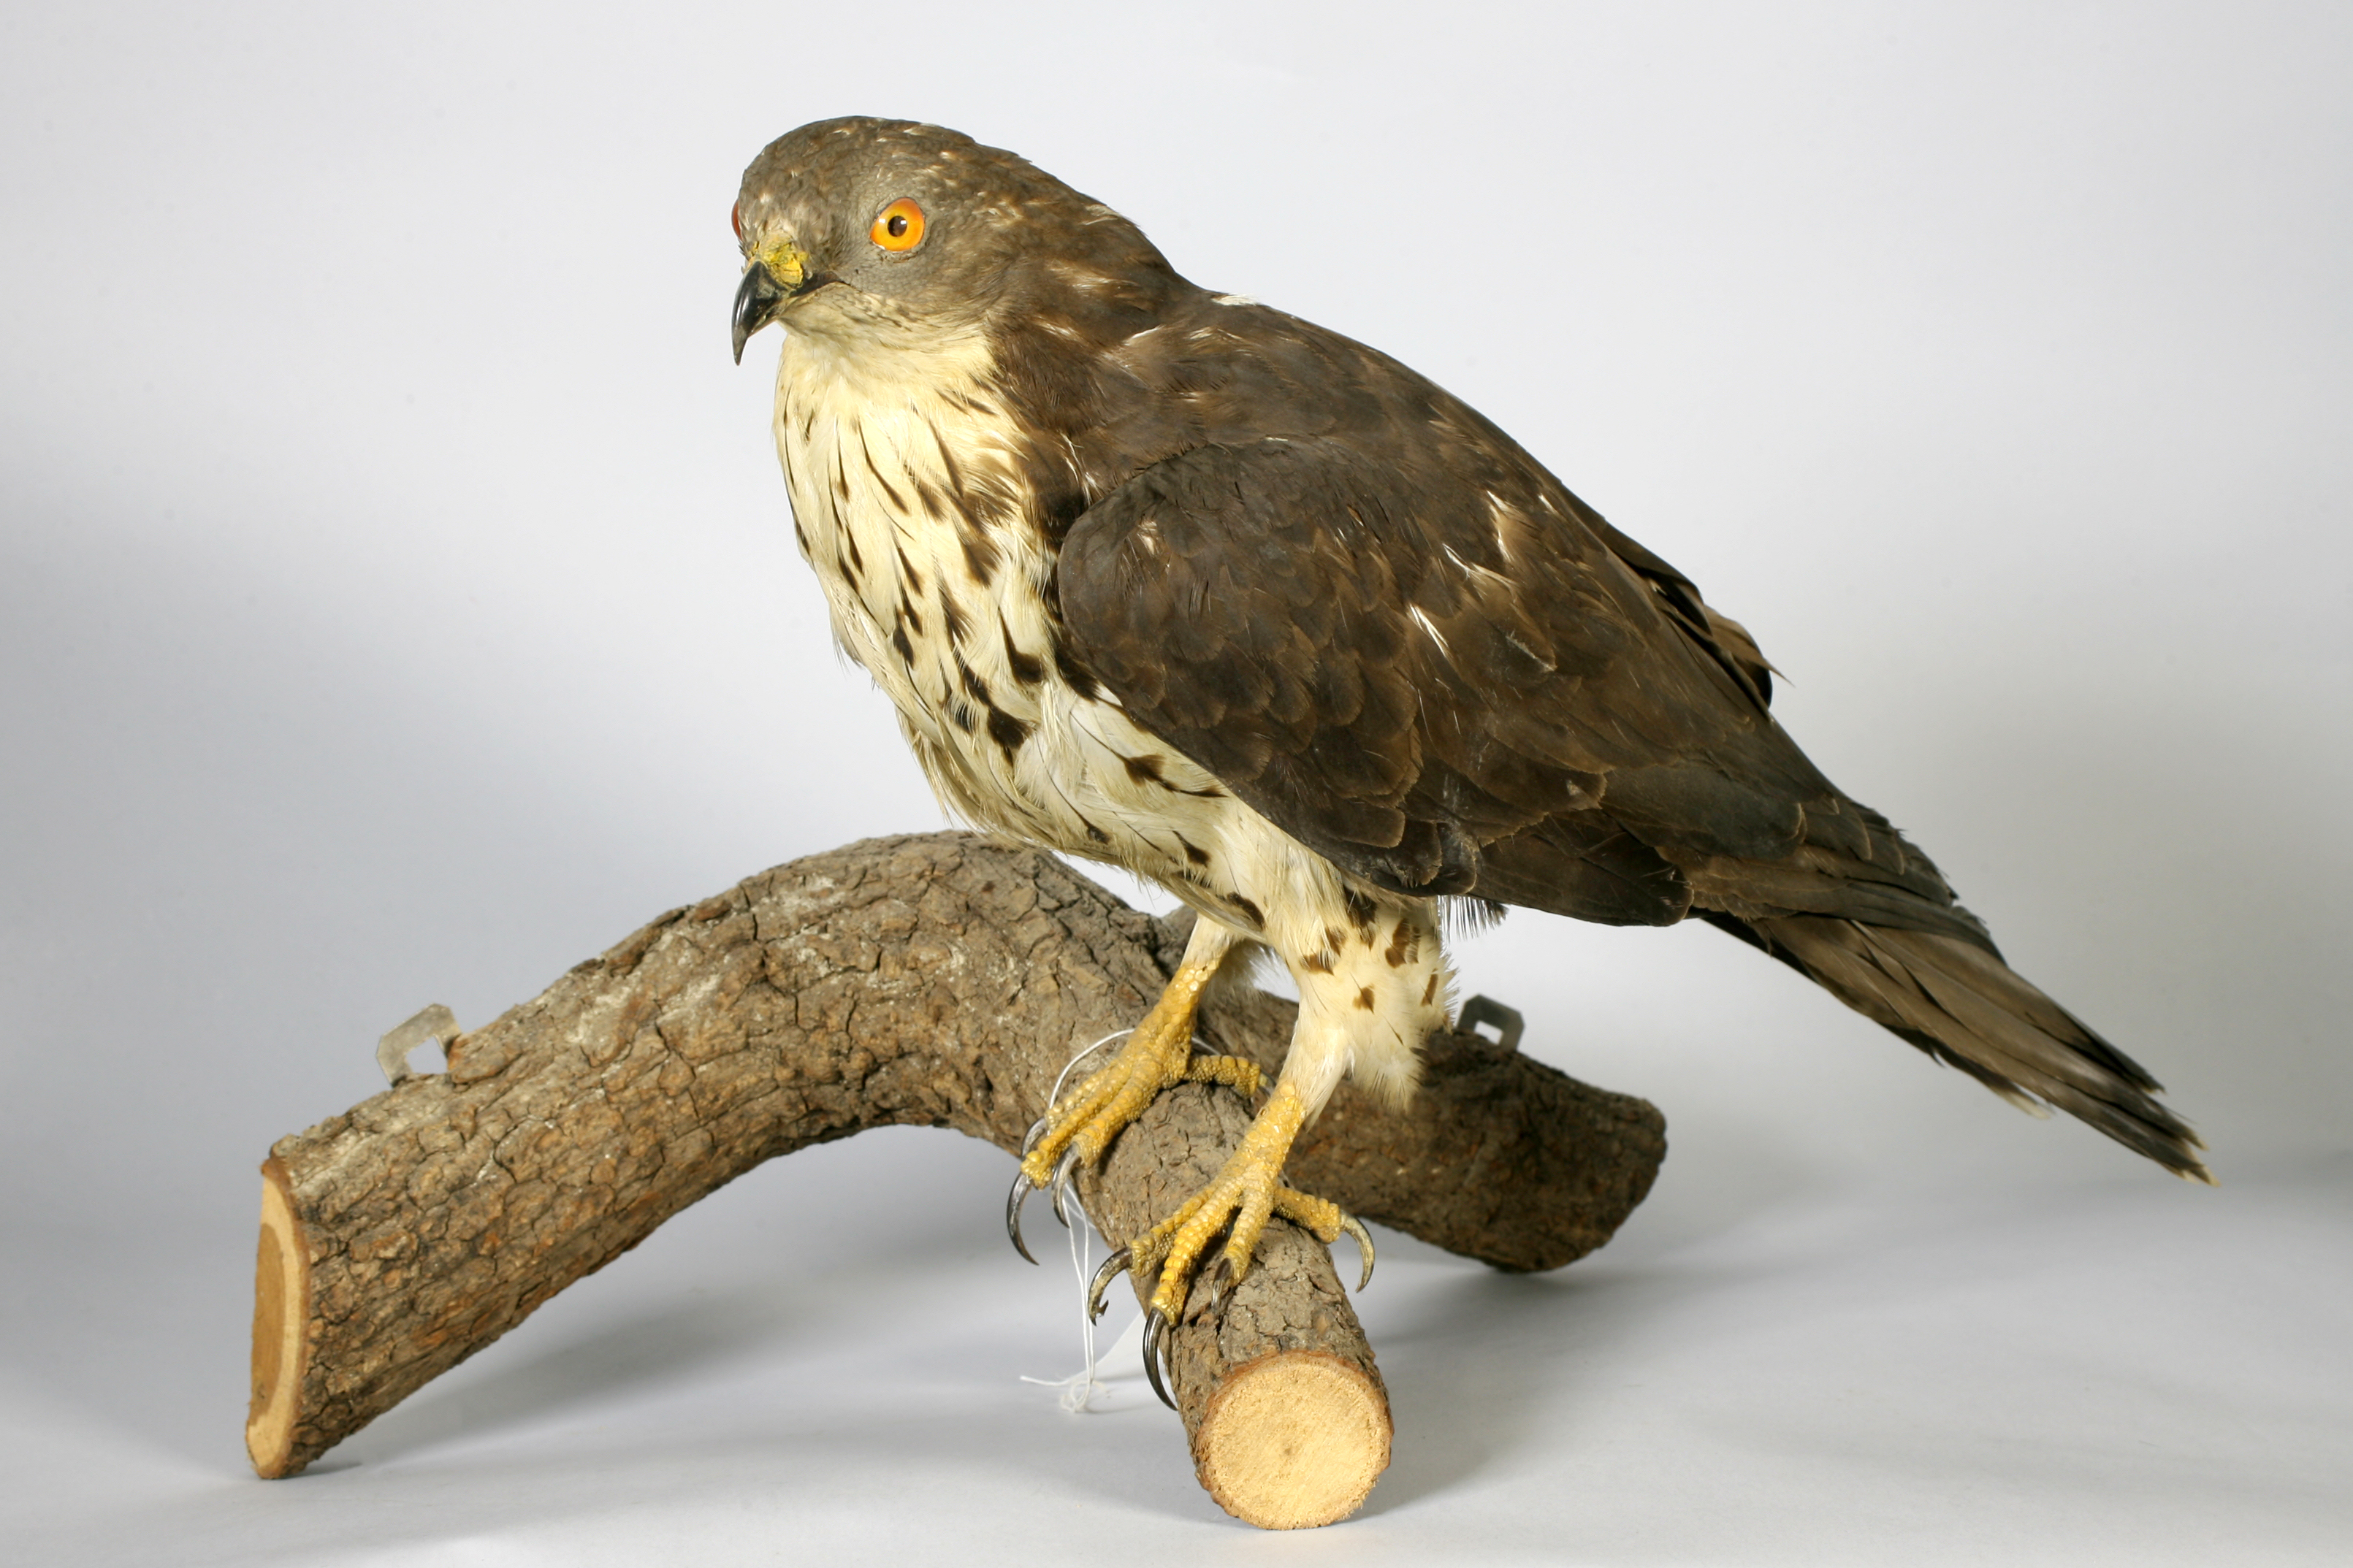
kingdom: Animalia
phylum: Chordata
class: Aves
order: Accipitriformes
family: Accipitridae
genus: Pernis
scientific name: Pernis apivorus
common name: European honey buzzard
